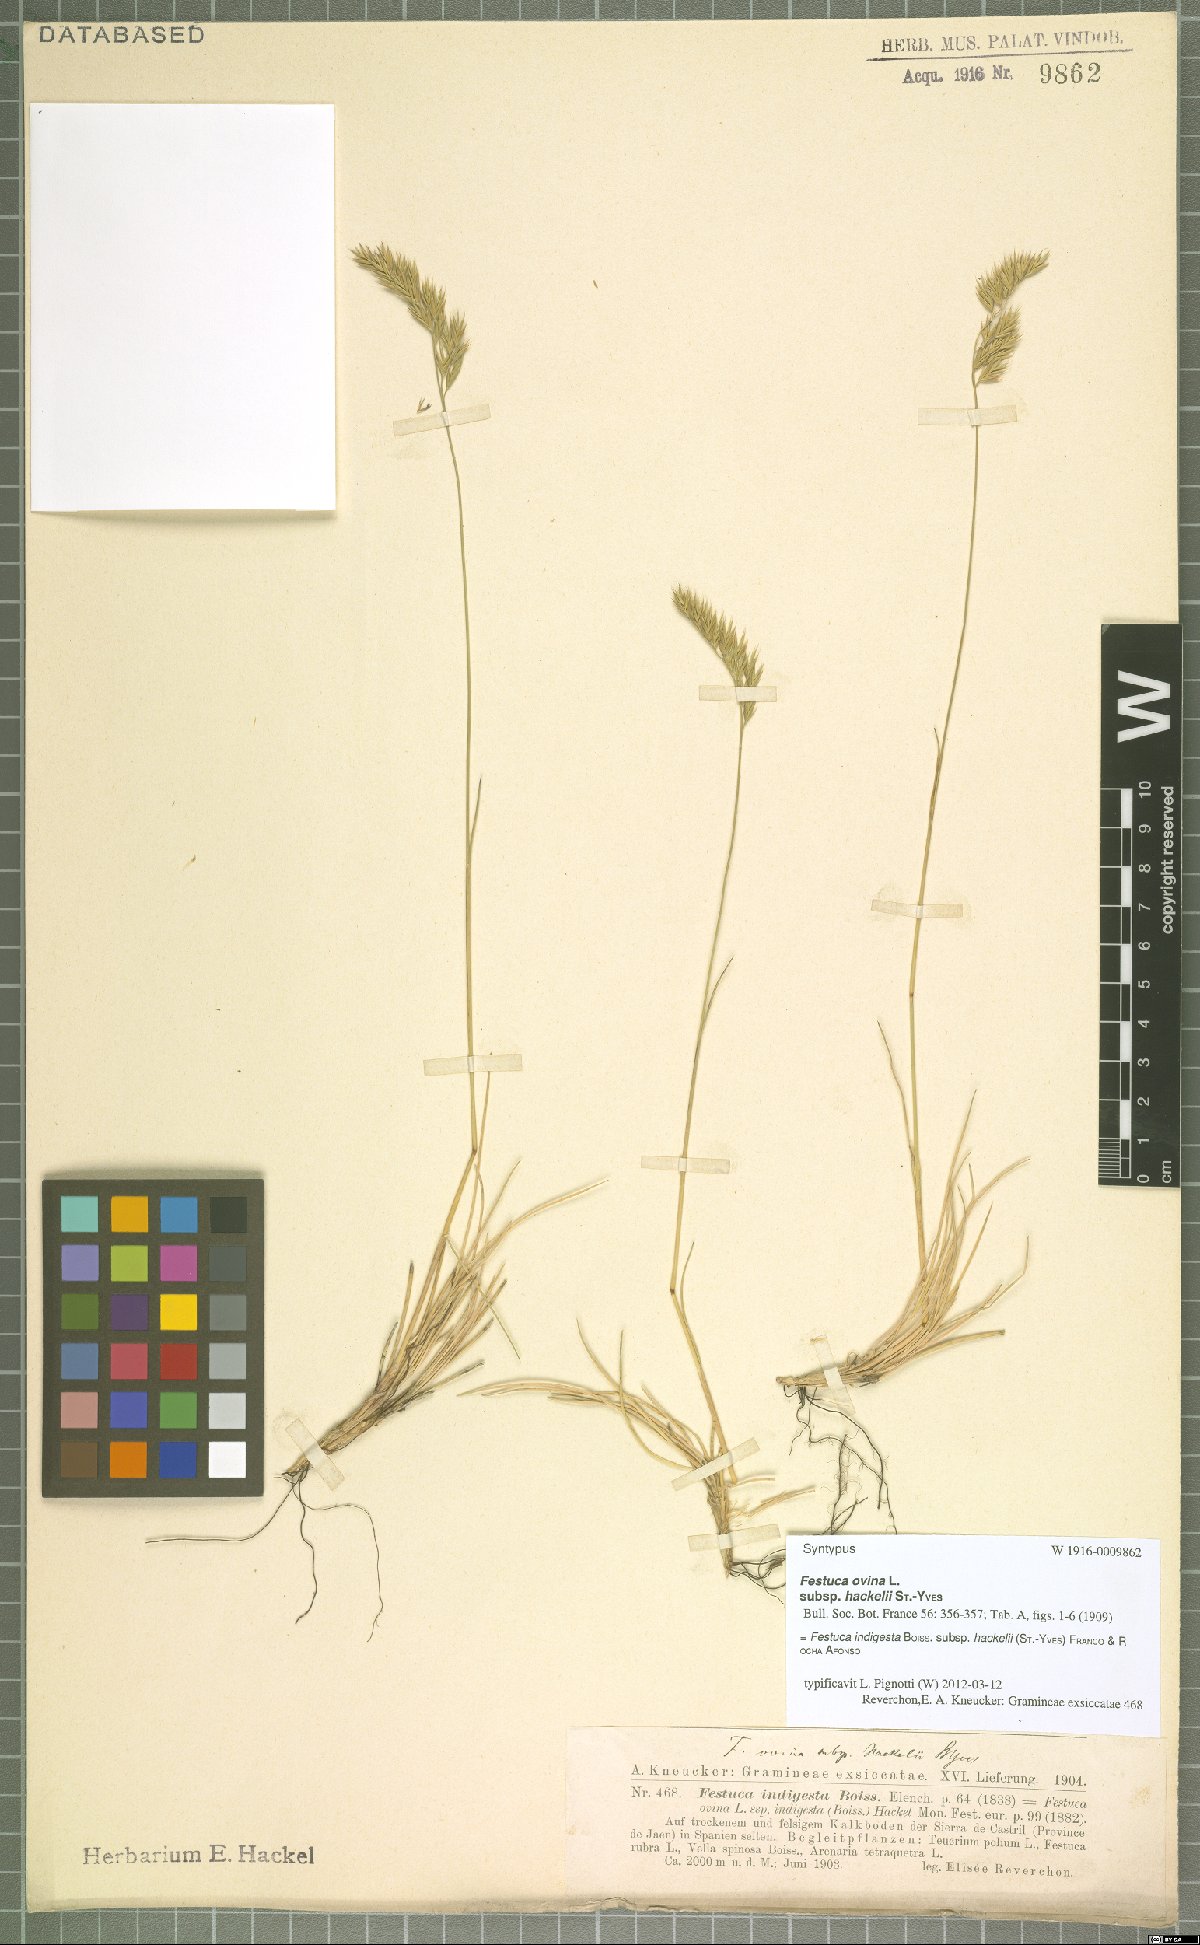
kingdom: Plantae
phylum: Tracheophyta
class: Liliopsida
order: Poales
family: Poaceae
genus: Festuca
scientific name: Festuca indigesta
